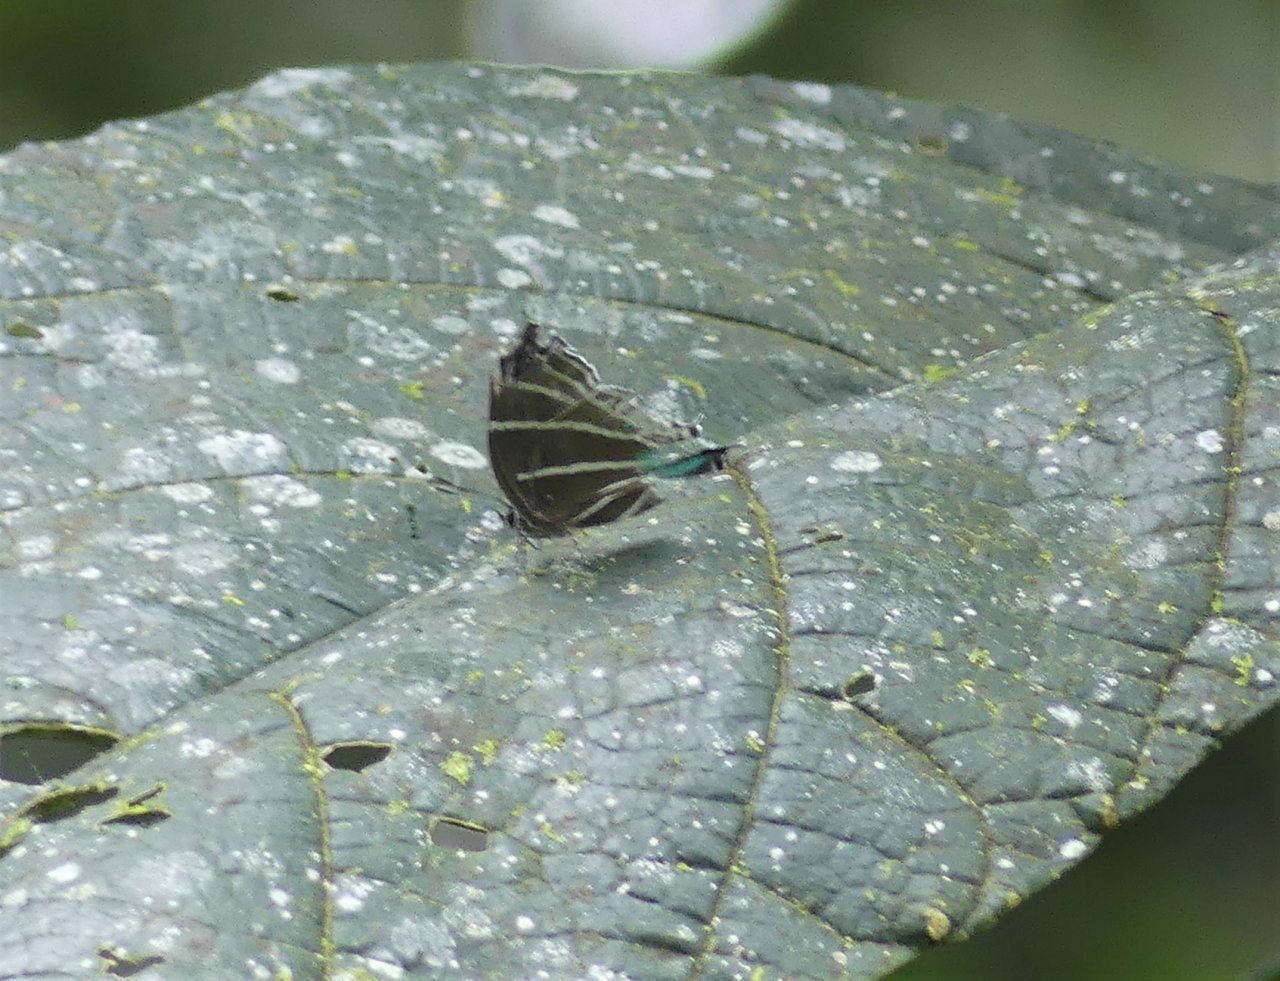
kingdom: Animalia
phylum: Arthropoda
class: Insecta
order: Lepidoptera
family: Lycaenidae
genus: Laothus
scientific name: Laothus barajo
